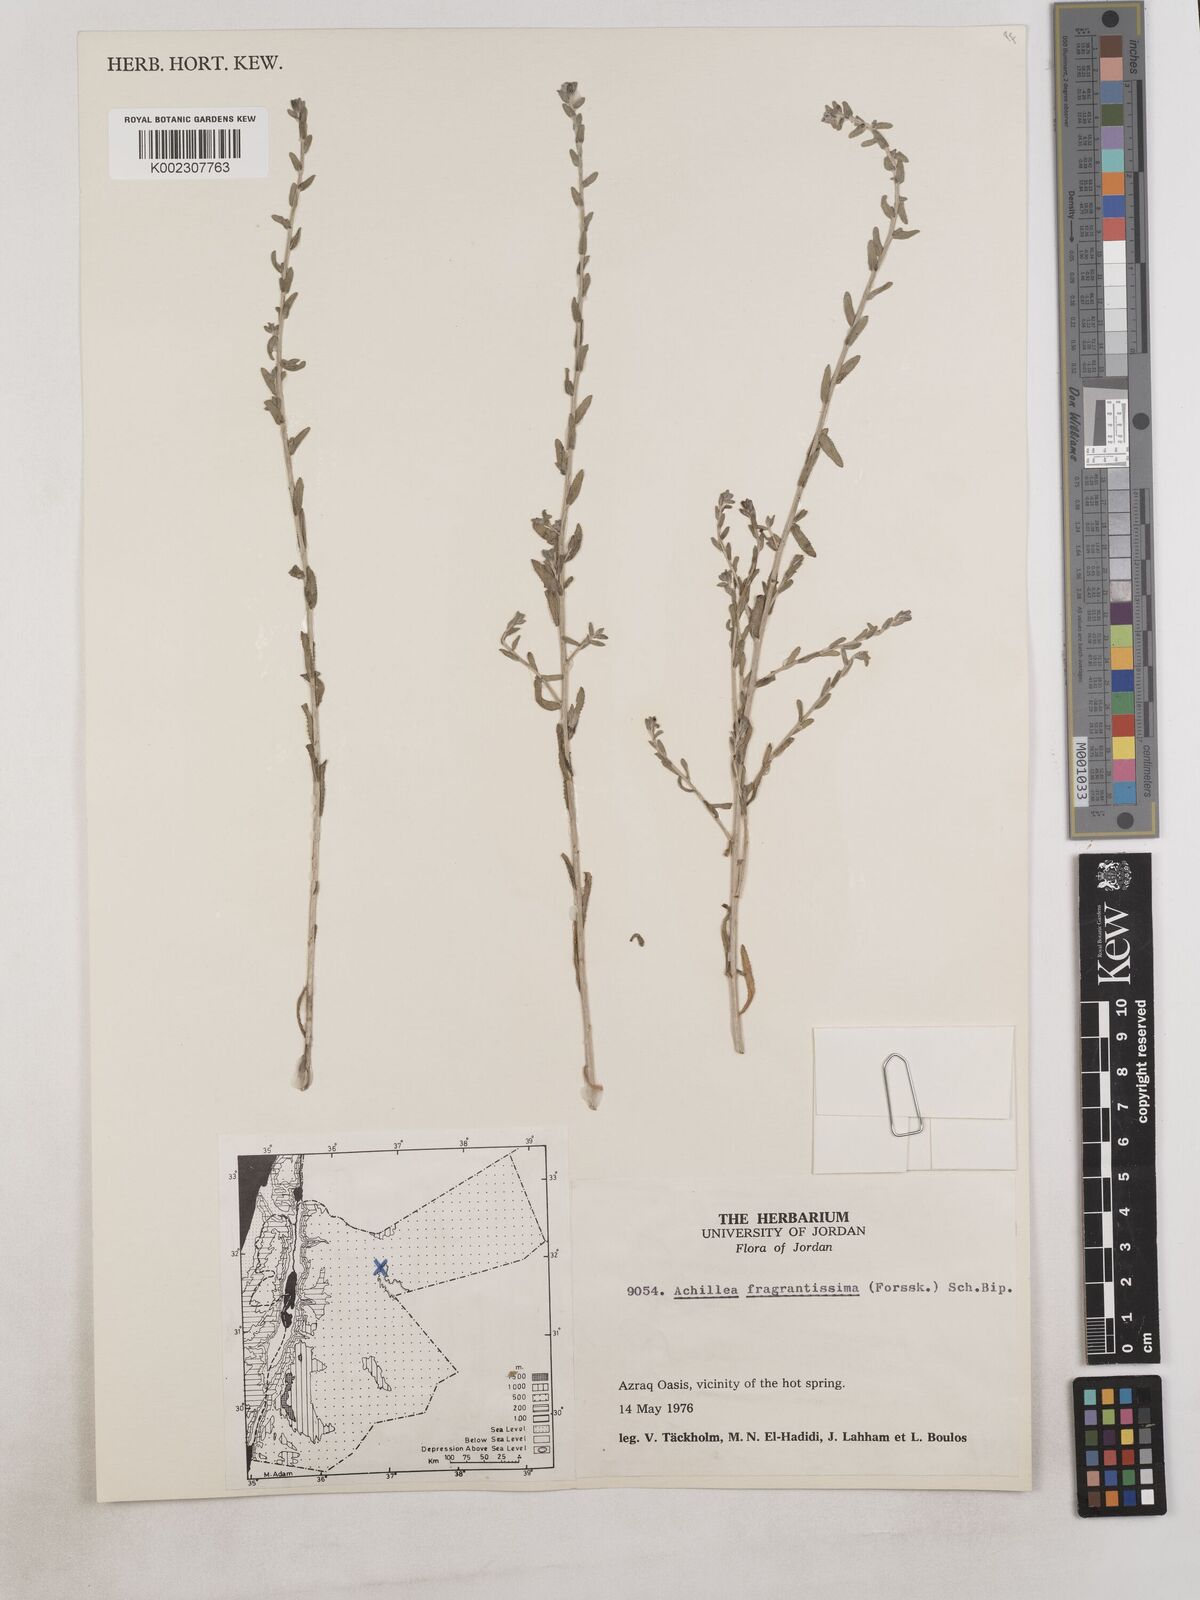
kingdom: Plantae
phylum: Tracheophyta
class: Magnoliopsida
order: Asterales
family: Asteraceae
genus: Achillea
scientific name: Achillea fragrantissima
